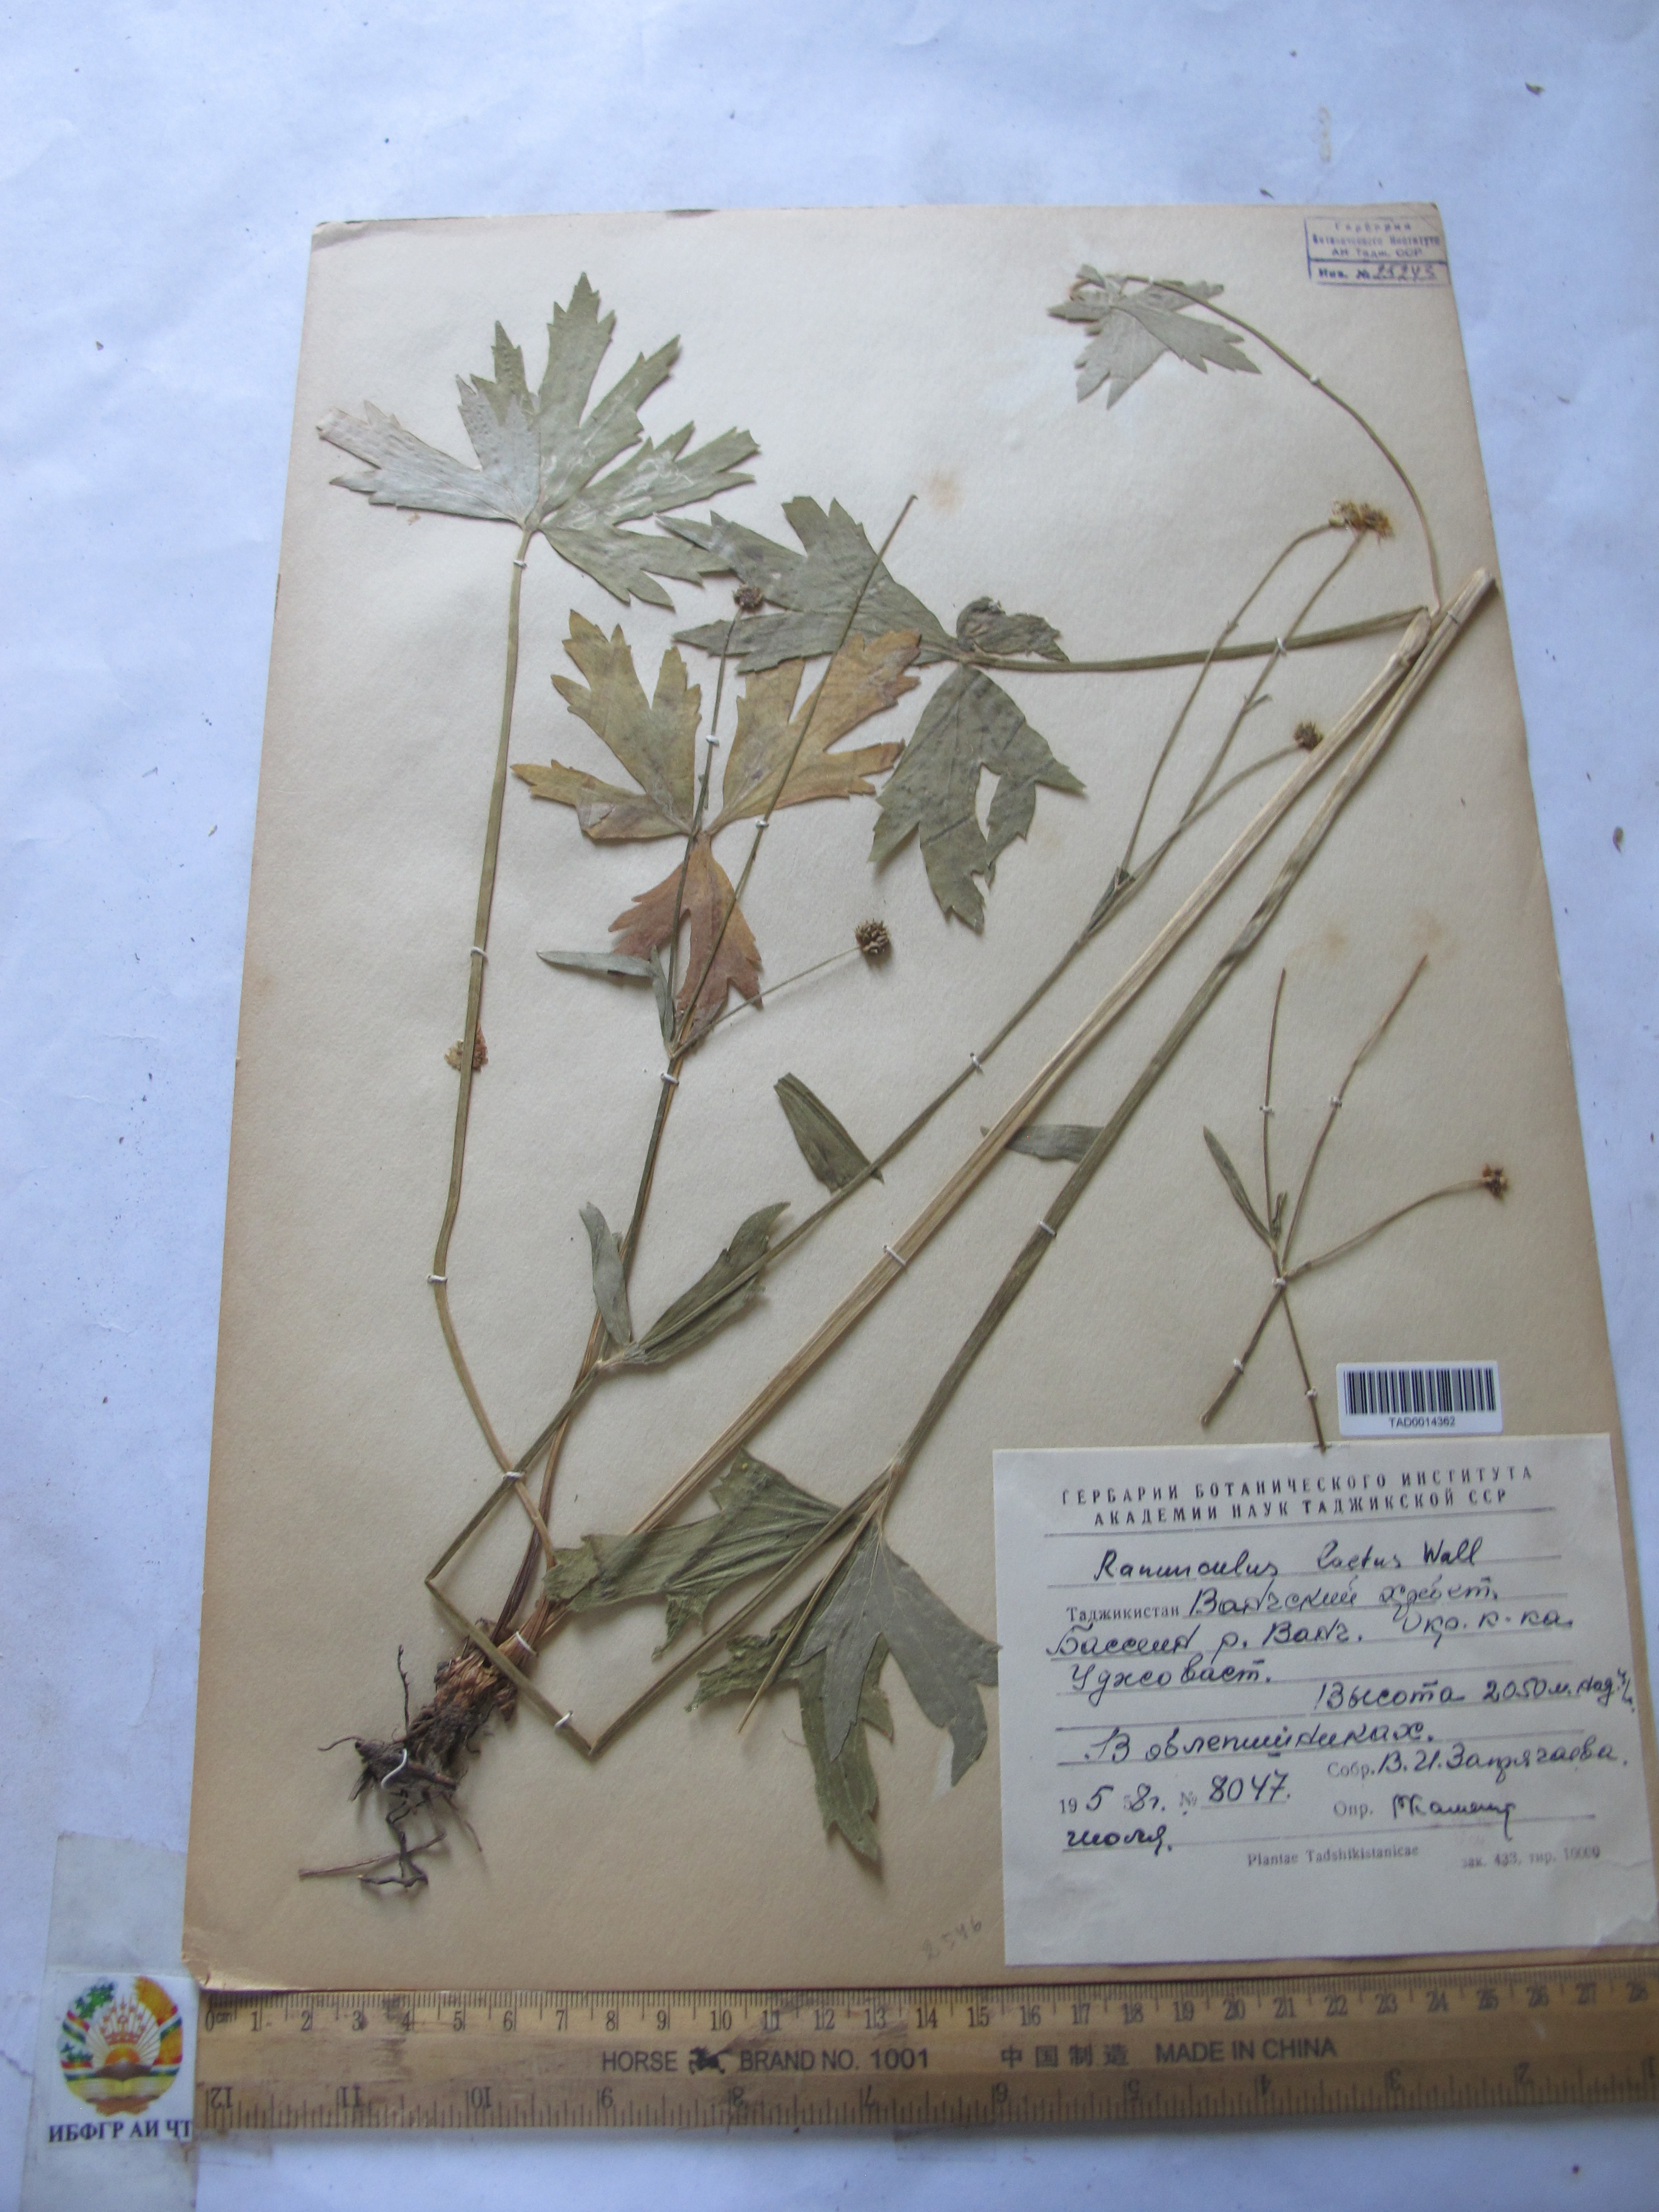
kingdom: Plantae
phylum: Tracheophyta
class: Magnoliopsida
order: Ranunculales
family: Ranunculaceae
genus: Ranunculus
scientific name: Ranunculus distans
